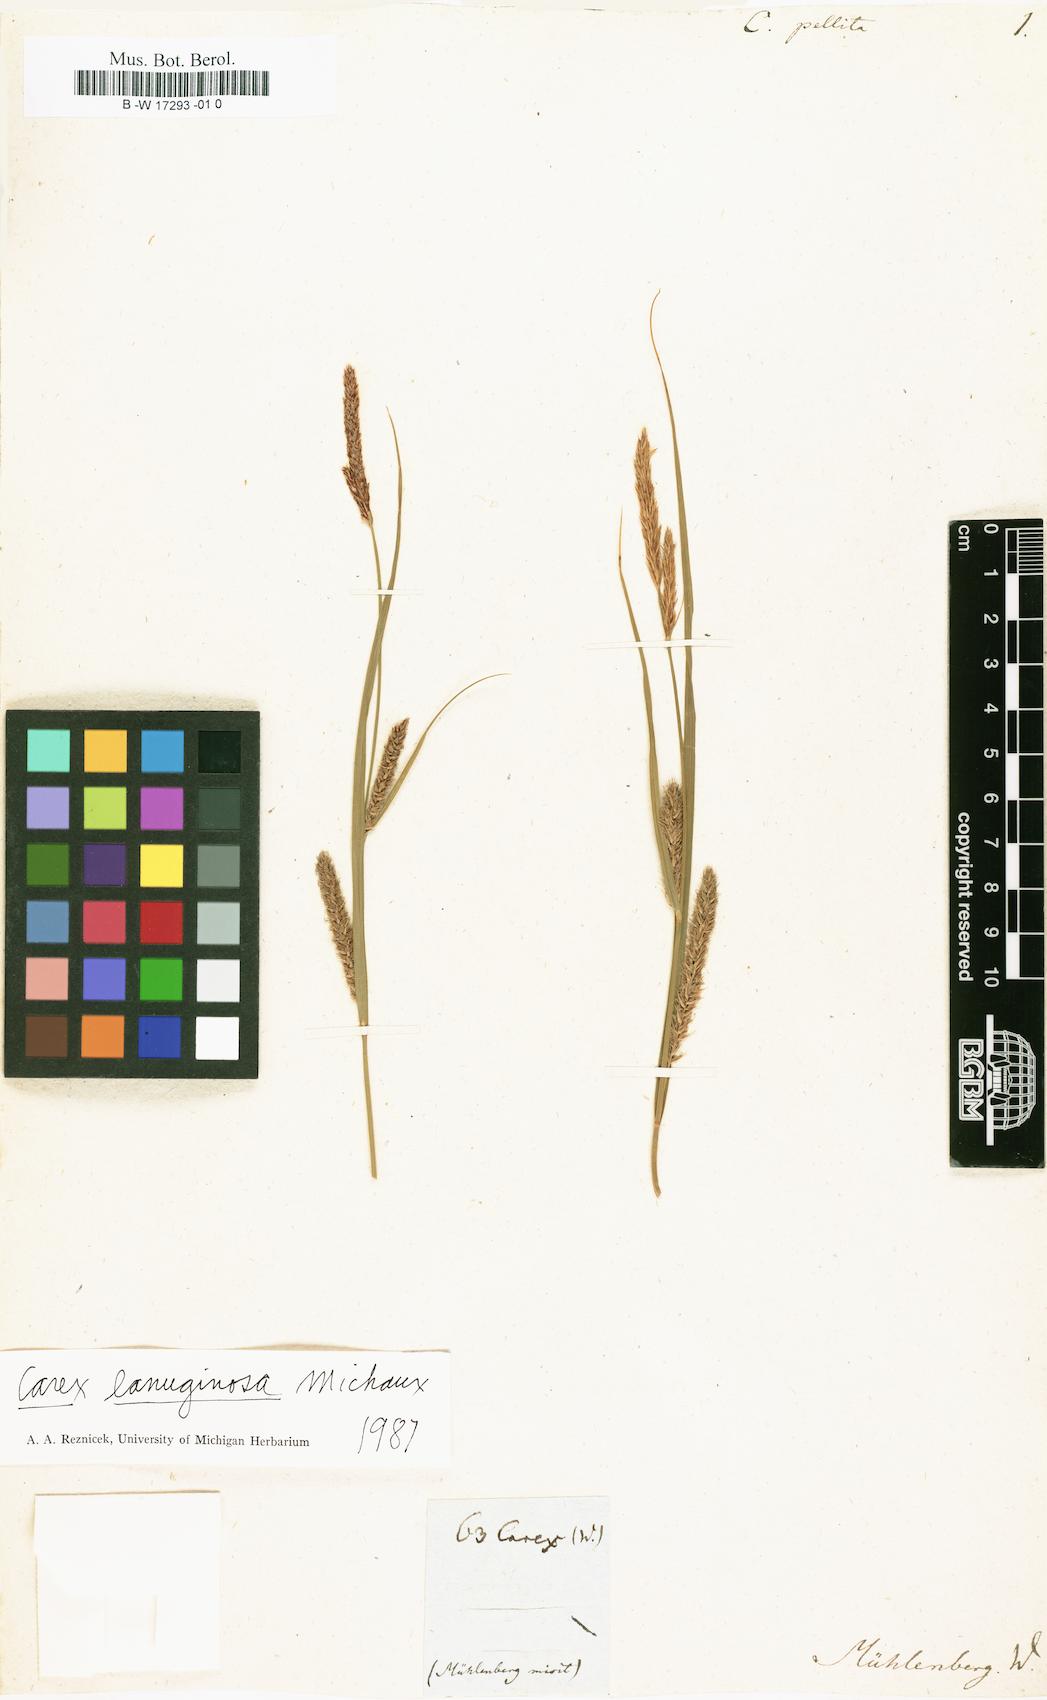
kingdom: Plantae
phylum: Tracheophyta
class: Liliopsida
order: Poales
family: Cyperaceae
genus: Carex
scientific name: Carex pellita
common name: Woolly sedge
